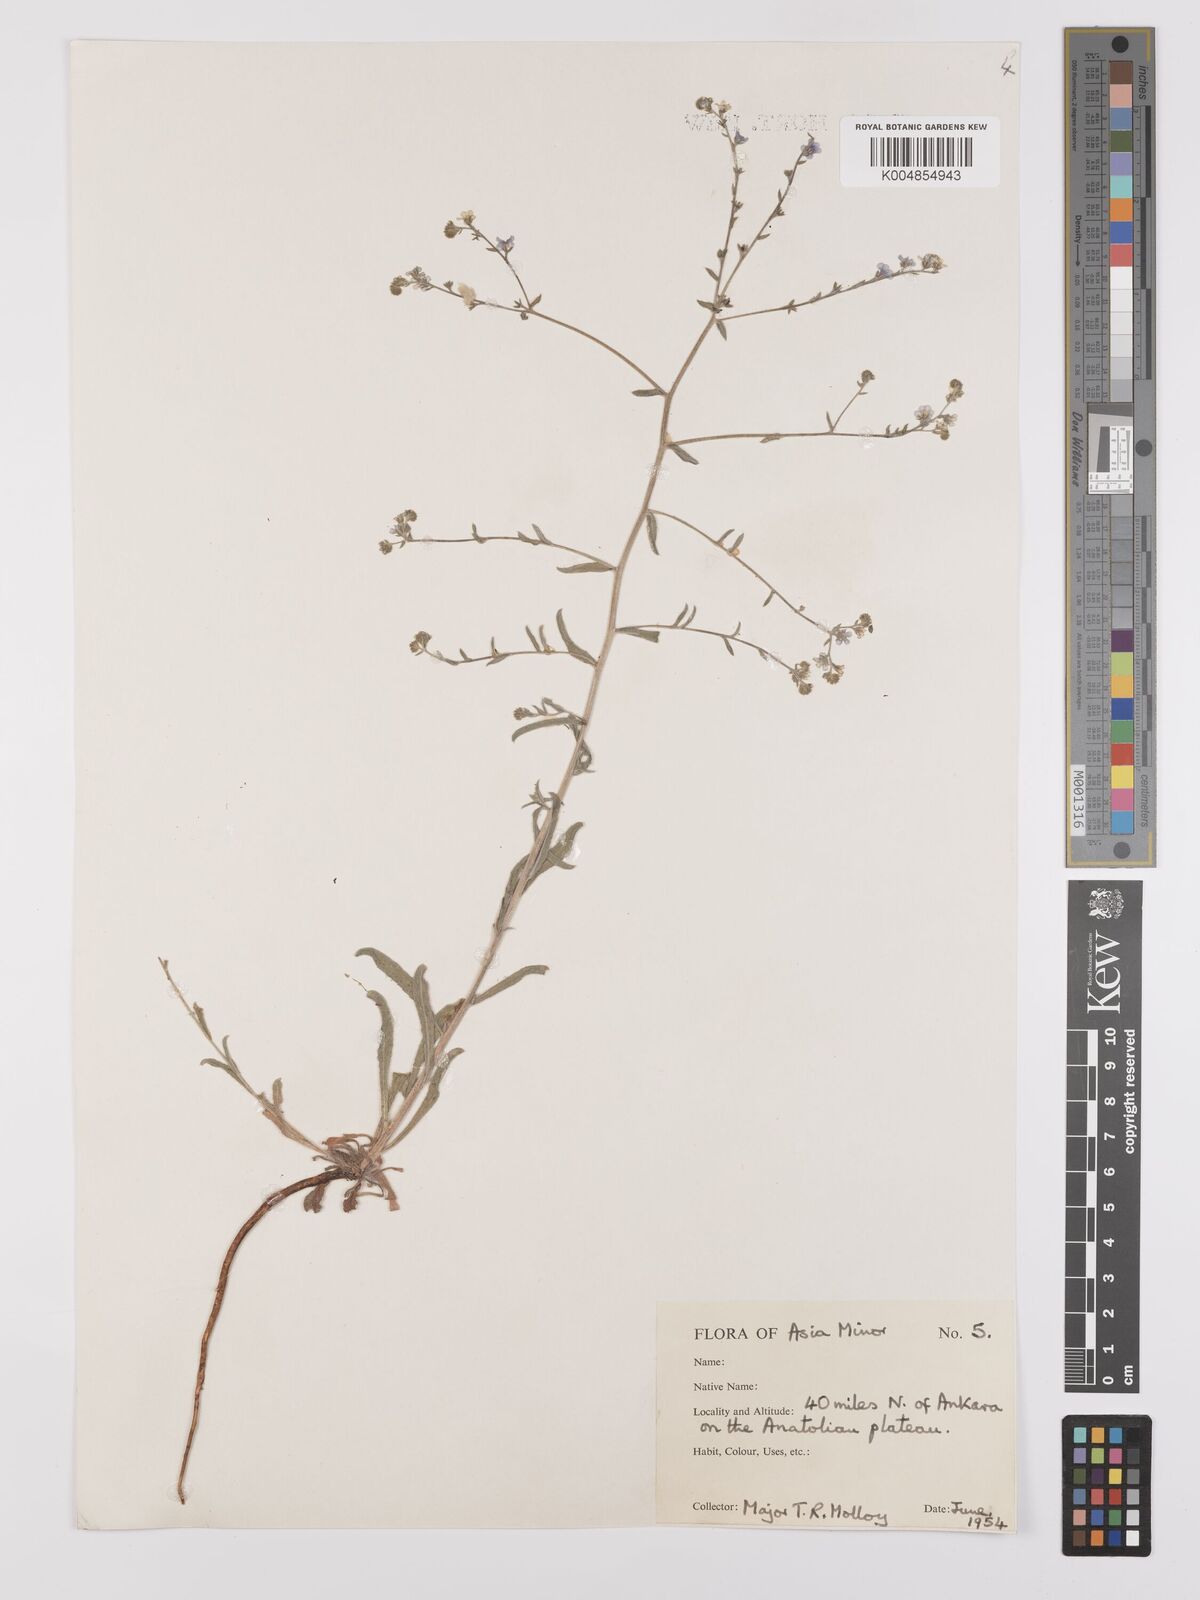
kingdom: Plantae
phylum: Tracheophyta
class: Magnoliopsida
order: Boraginales
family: Boraginaceae
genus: Myosotis
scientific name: Myosotis
